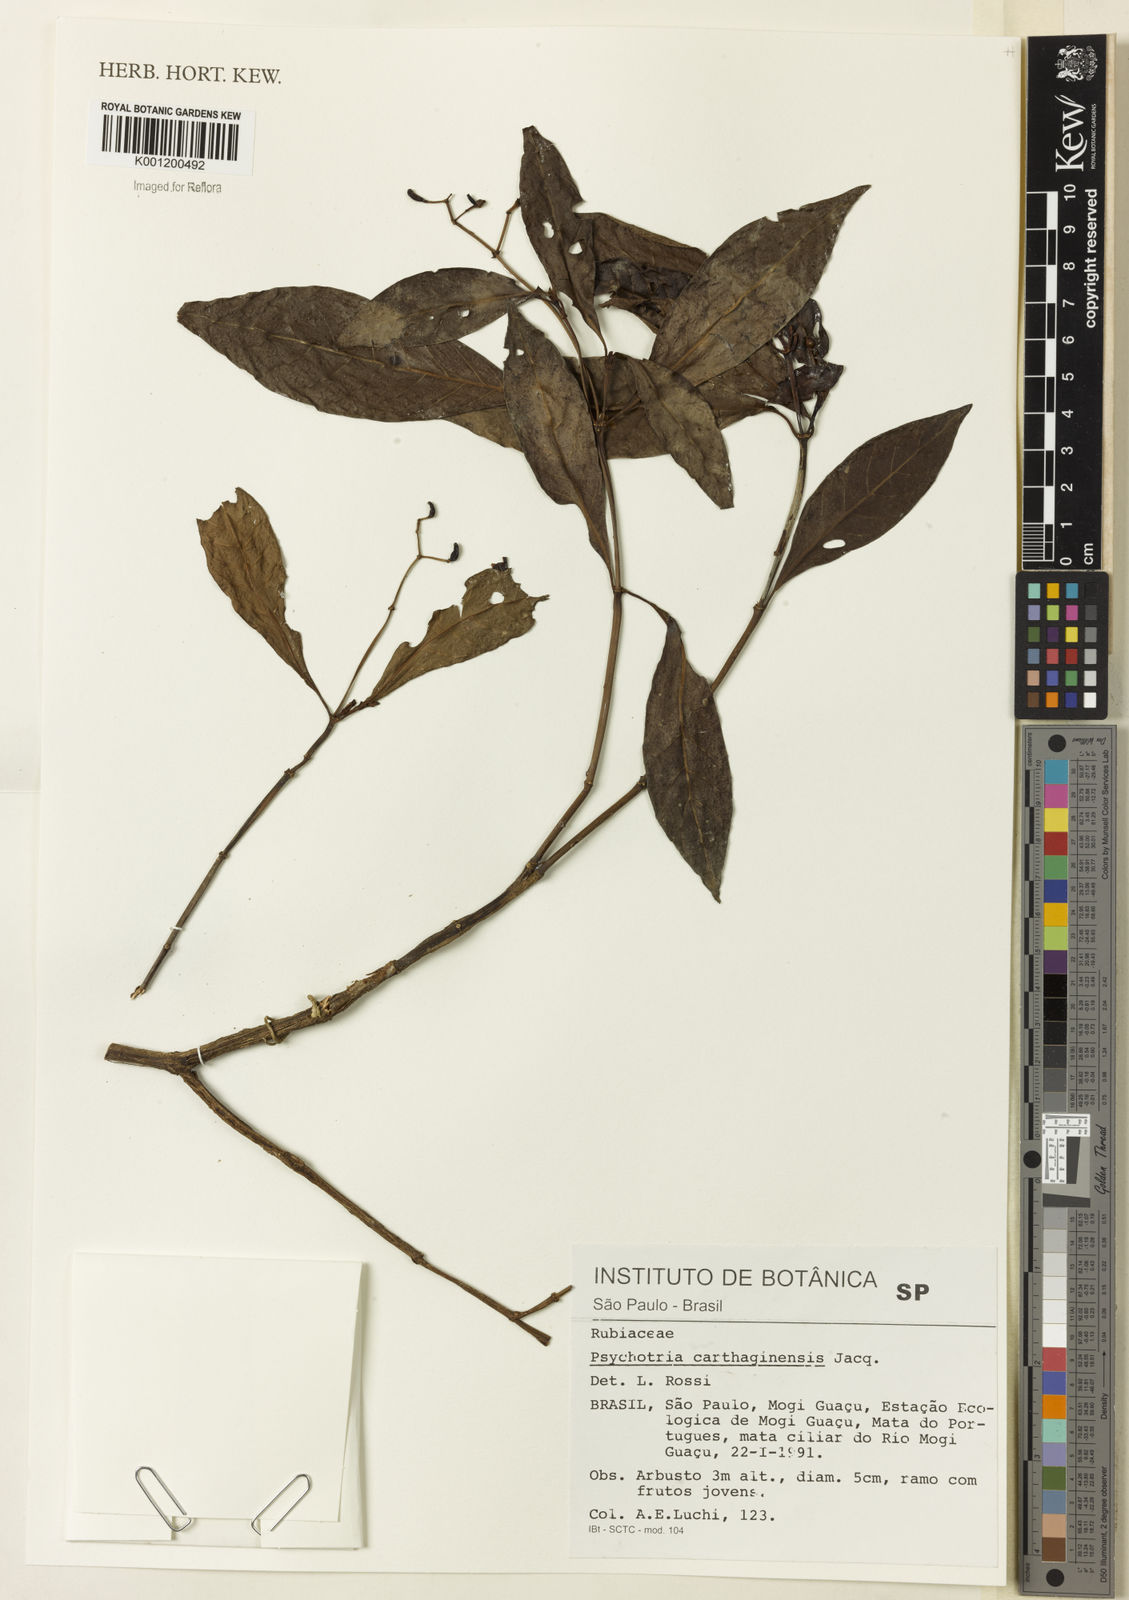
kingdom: Plantae
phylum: Tracheophyta
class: Magnoliopsida
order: Gentianales
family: Rubiaceae
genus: Psychotria
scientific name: Psychotria carthagenensis
